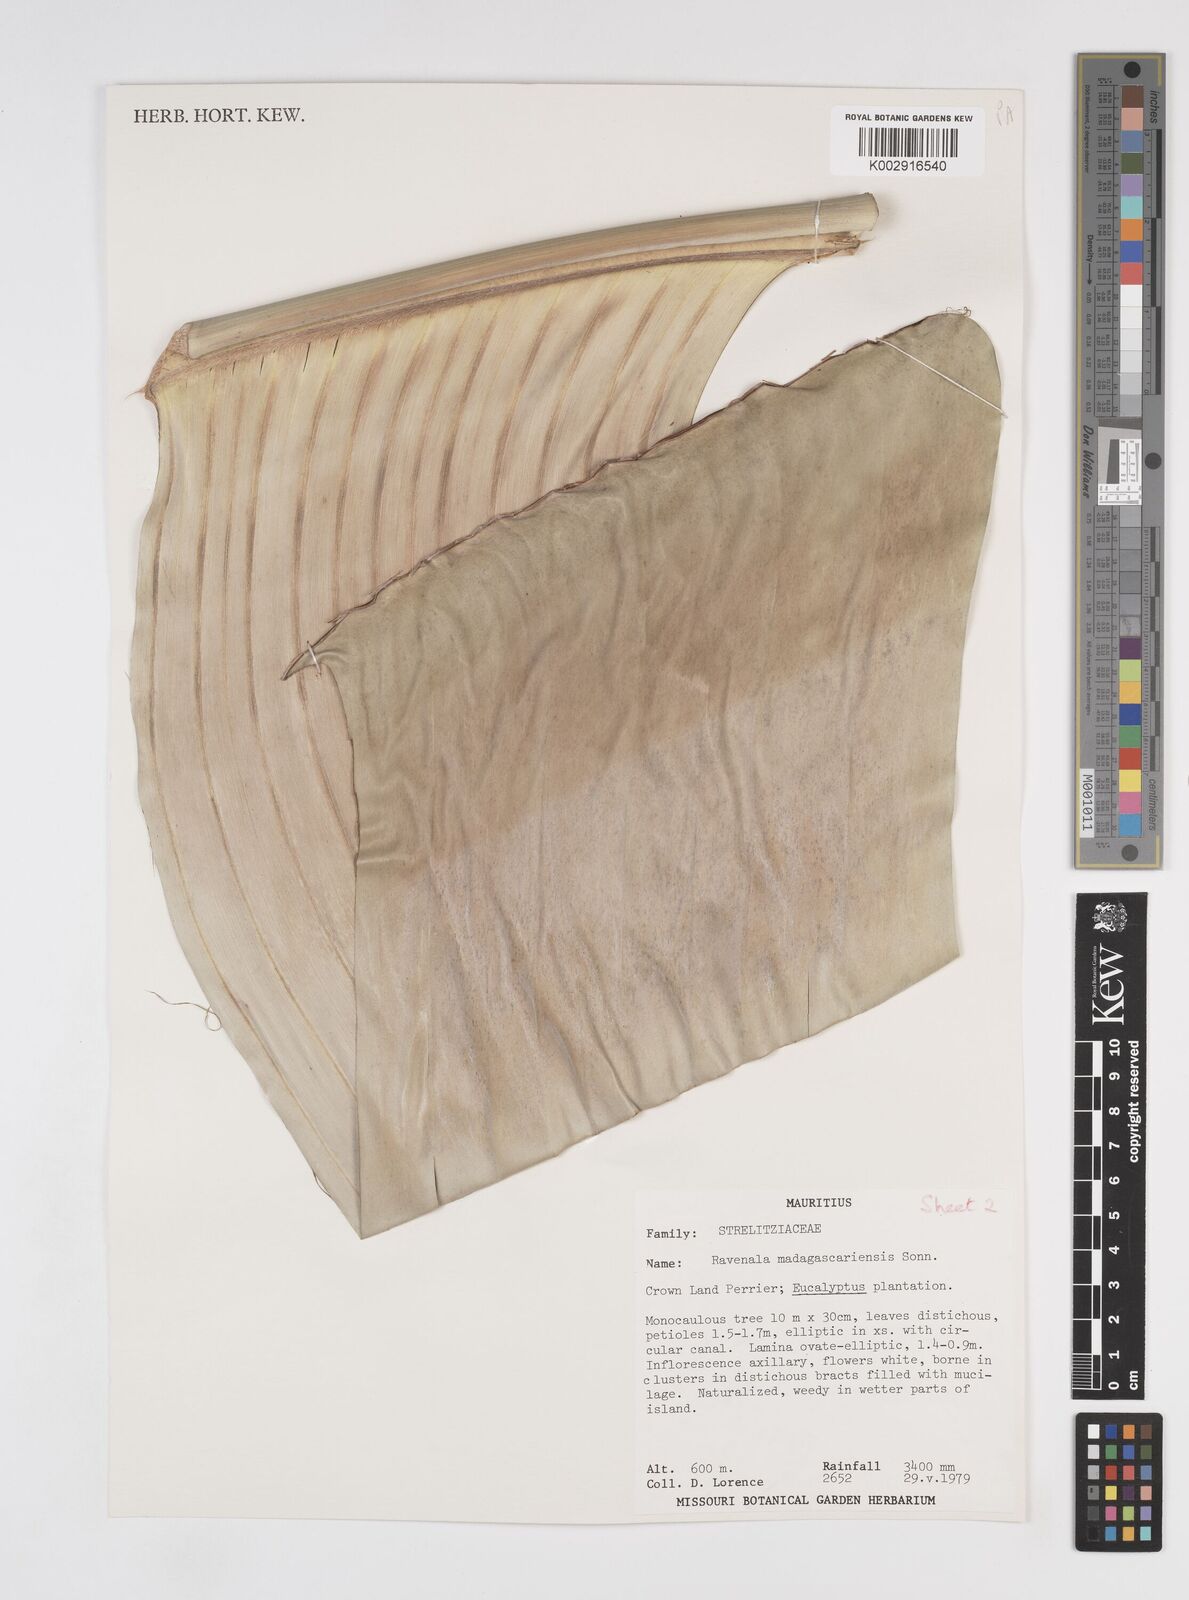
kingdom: Plantae
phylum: Tracheophyta
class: Liliopsida
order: Zingiberales
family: Strelitziaceae
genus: Ravenala
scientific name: Ravenala madagascariensis
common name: Traveler's-palm
